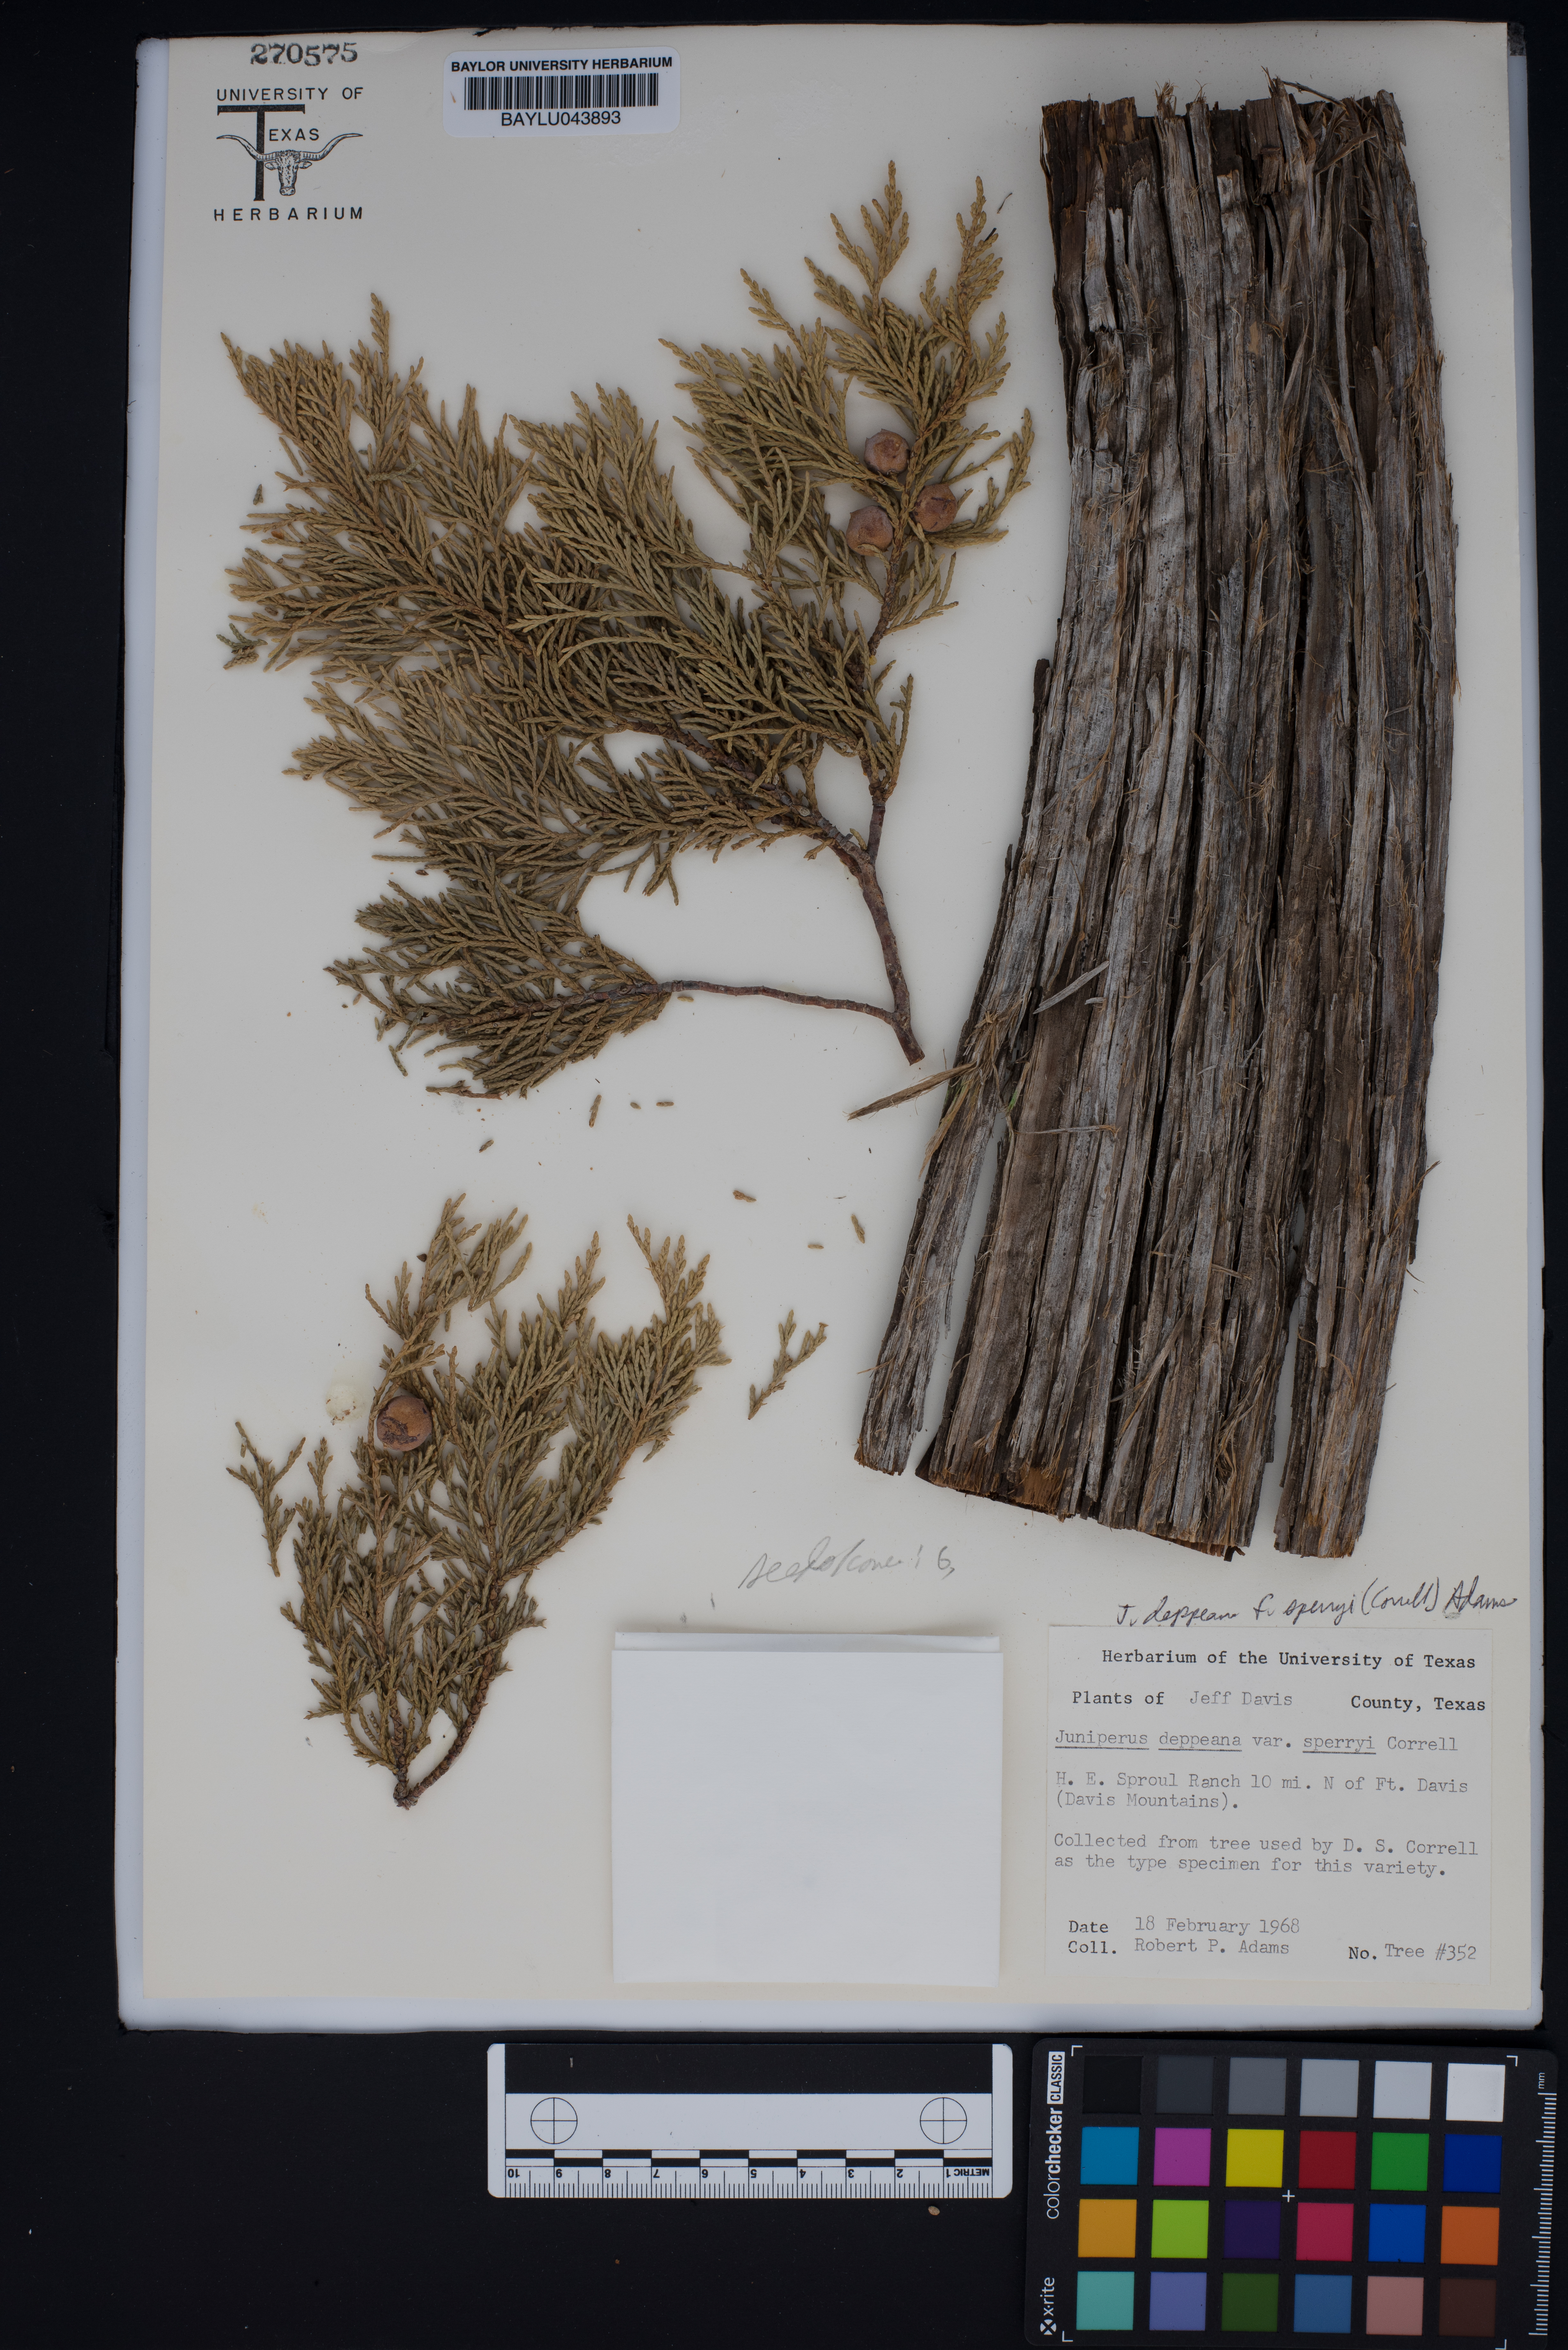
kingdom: Plantae
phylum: Tracheophyta
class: Pinopsida
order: Pinales
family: Cupressaceae
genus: Juniperus
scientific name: Juniperus deppeana
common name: Alligator juniper
